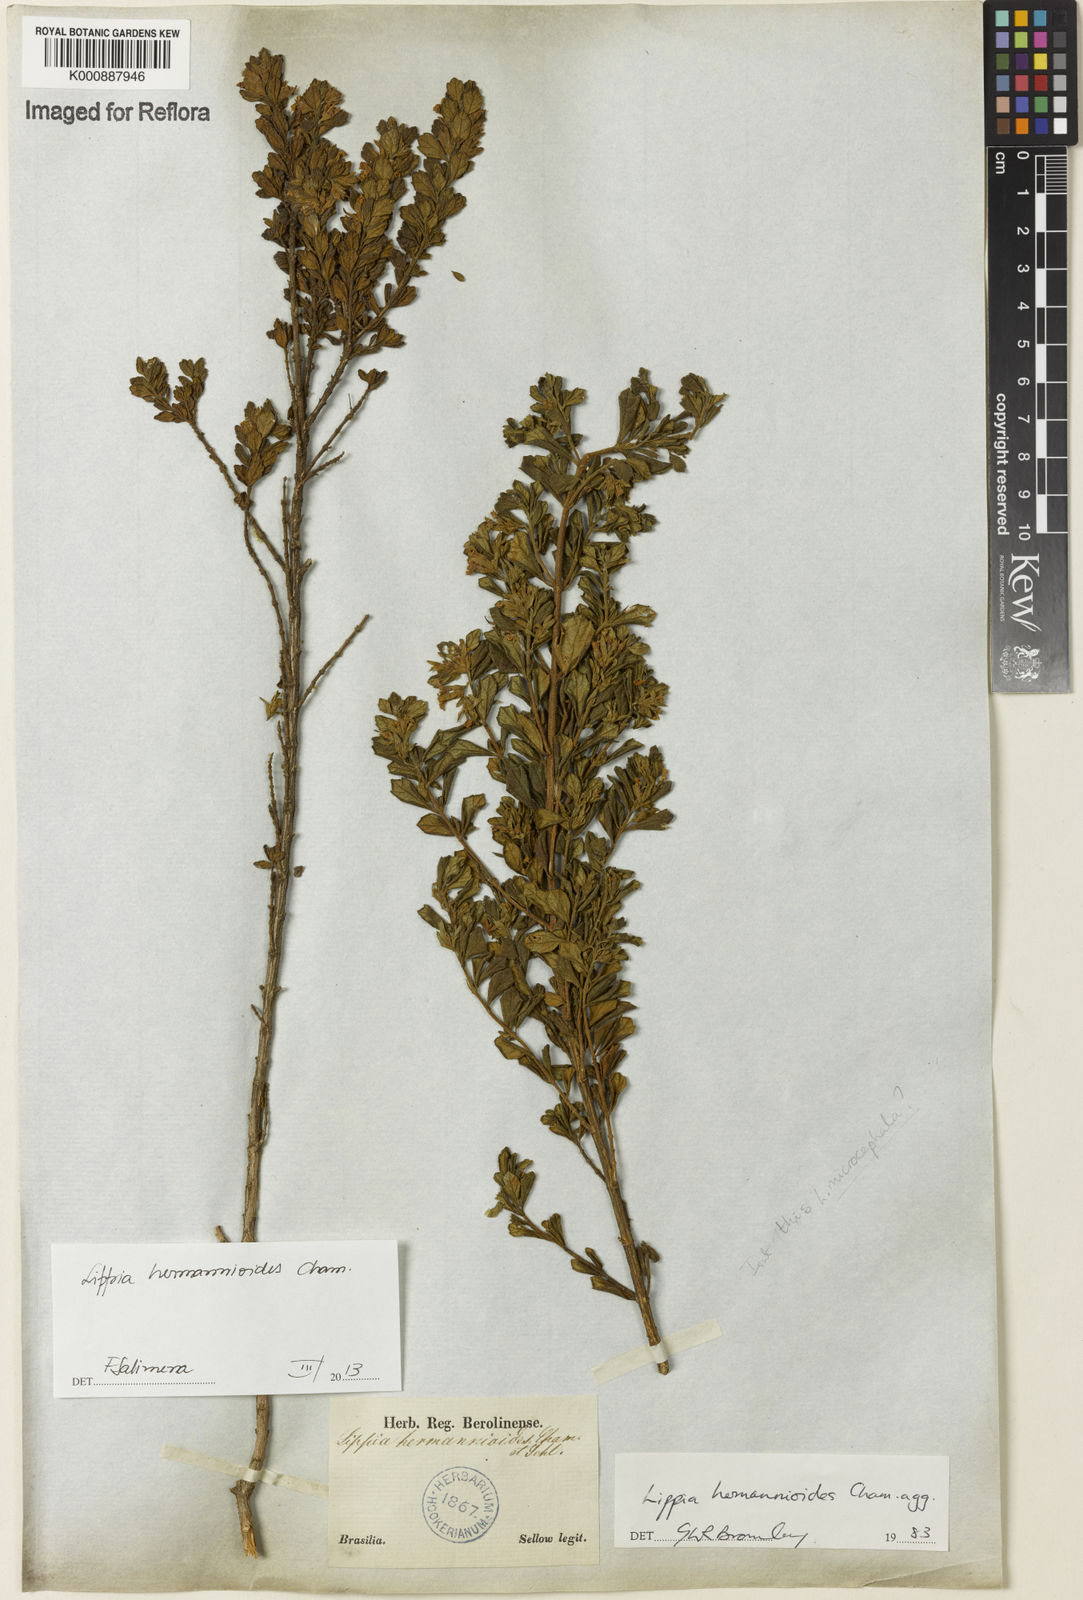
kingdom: Plantae
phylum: Tracheophyta
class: Magnoliopsida
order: Lamiales
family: Verbenaceae
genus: Lippia
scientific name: Lippia hermannioides
